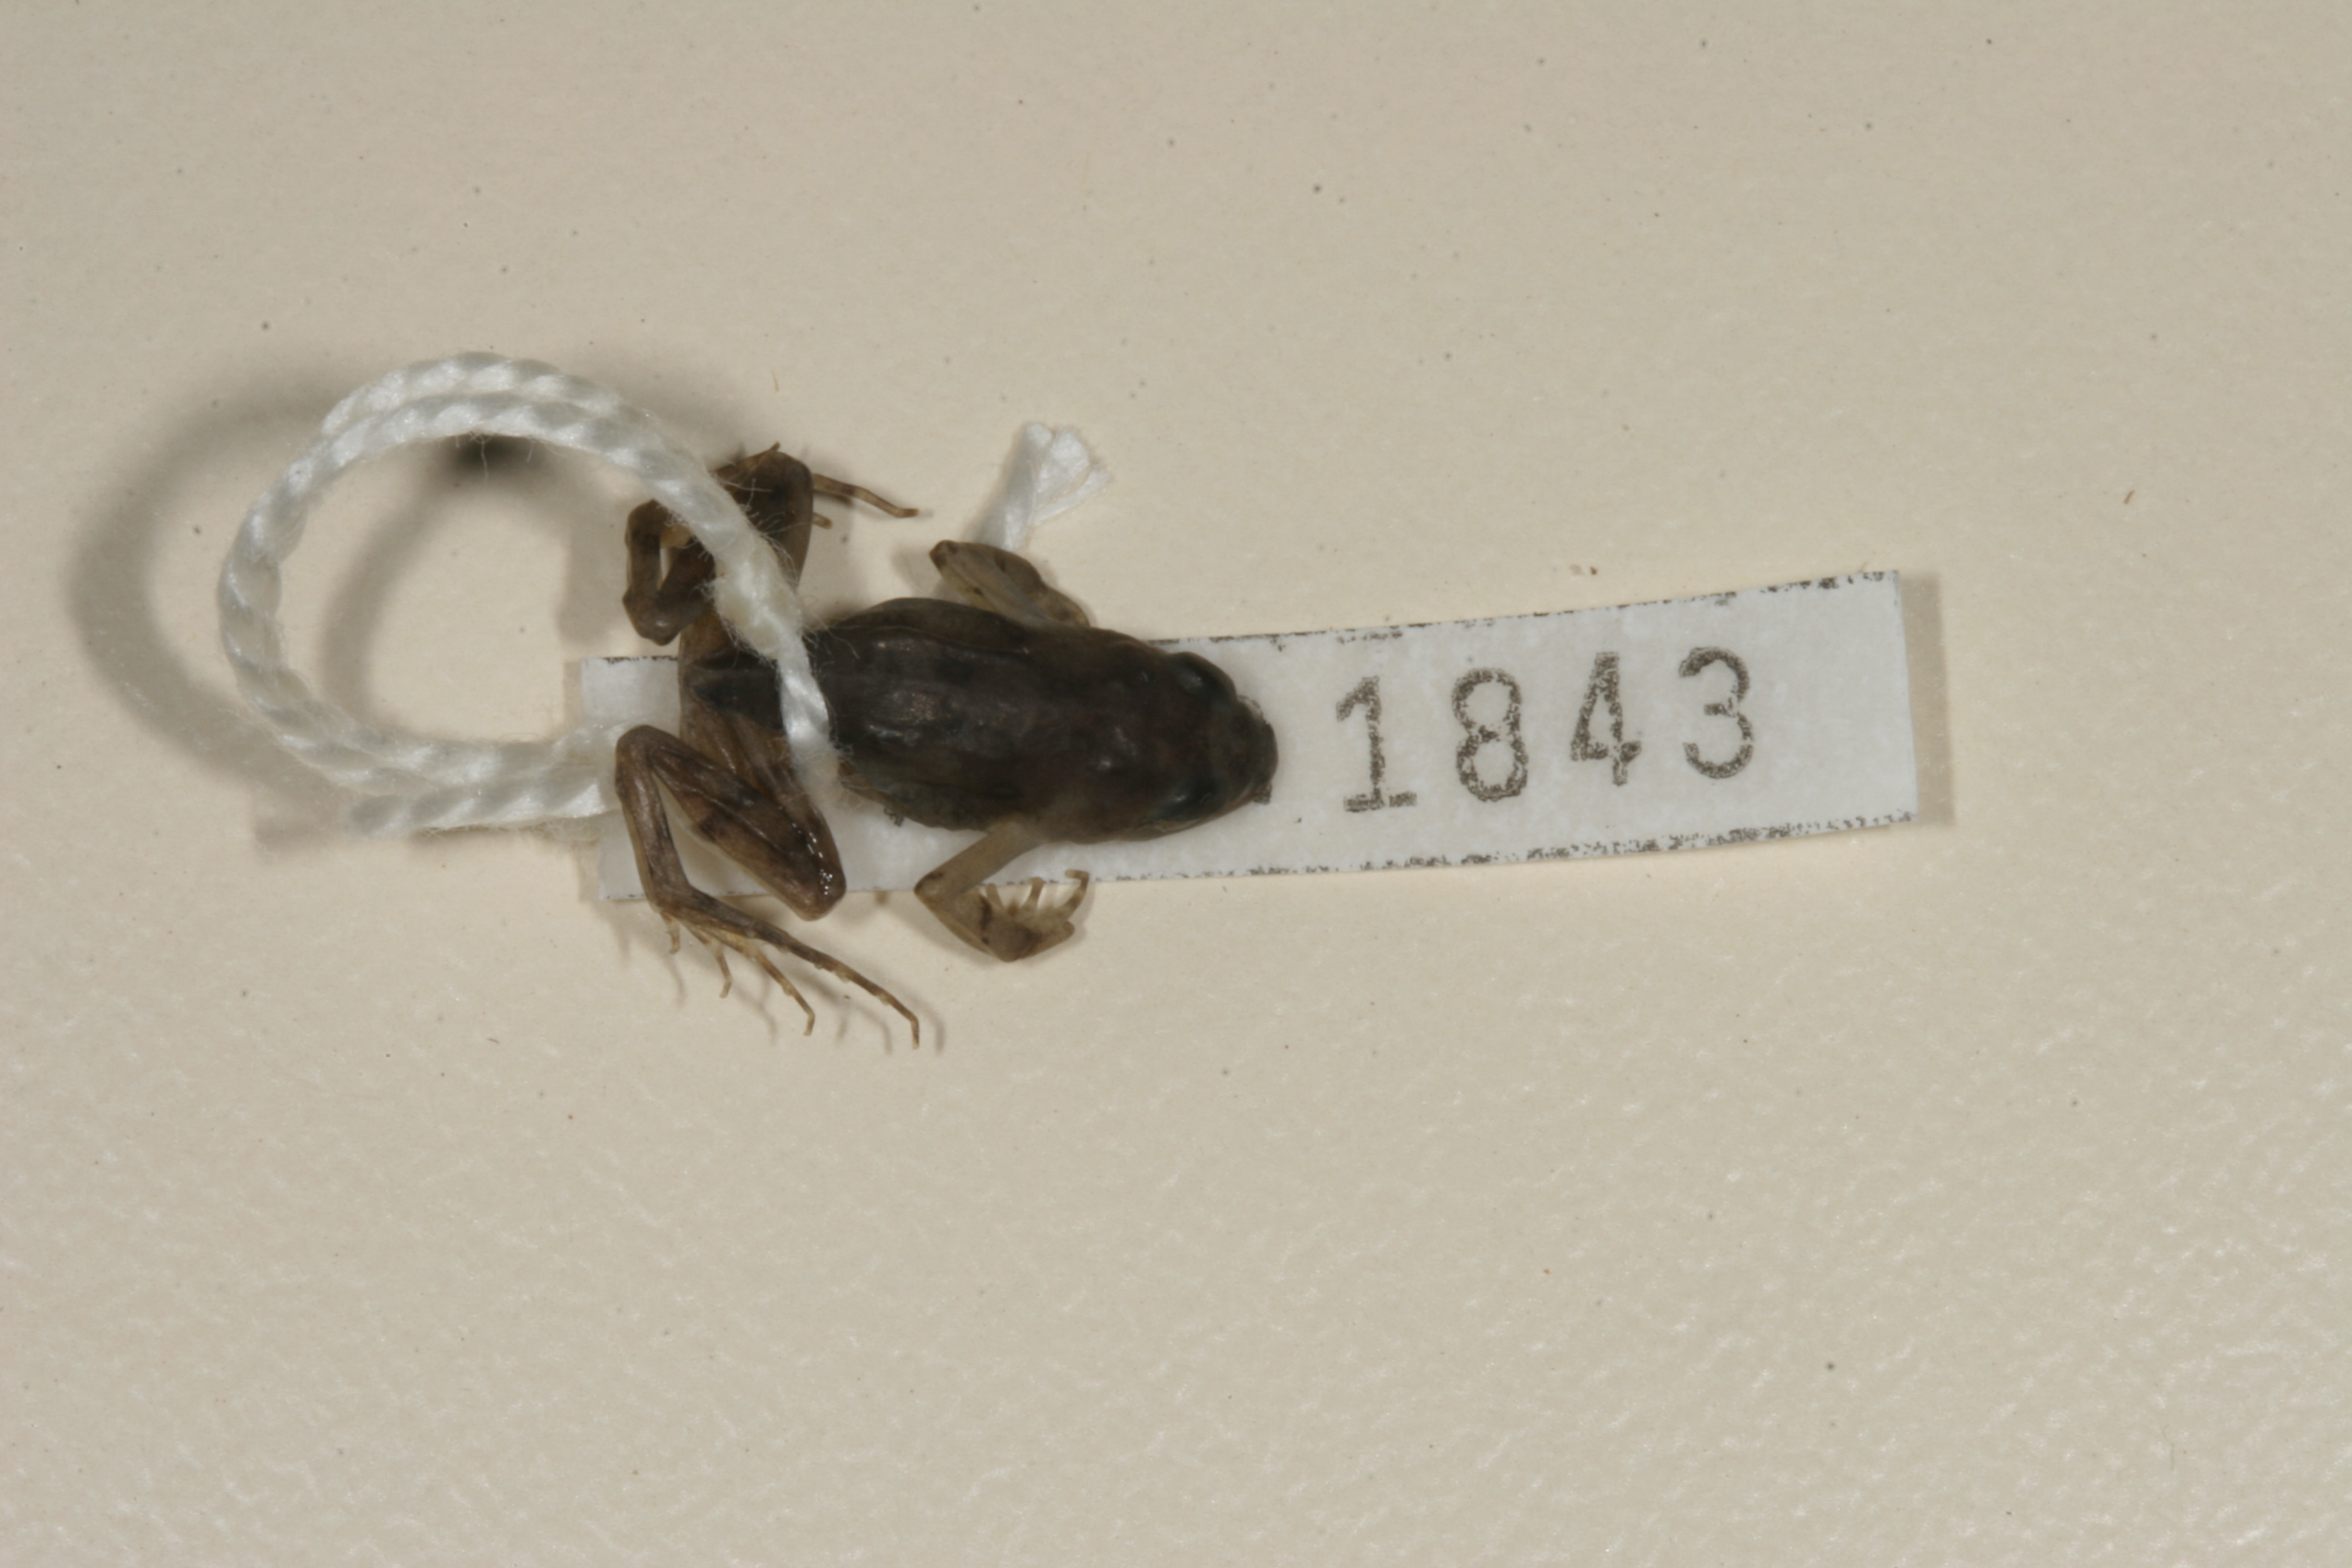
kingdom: Animalia
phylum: Chordata
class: Amphibia
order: Anura
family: Pyxicephalidae
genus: Cacosternum
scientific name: Cacosternum nanum
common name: Bronze dainty frog
